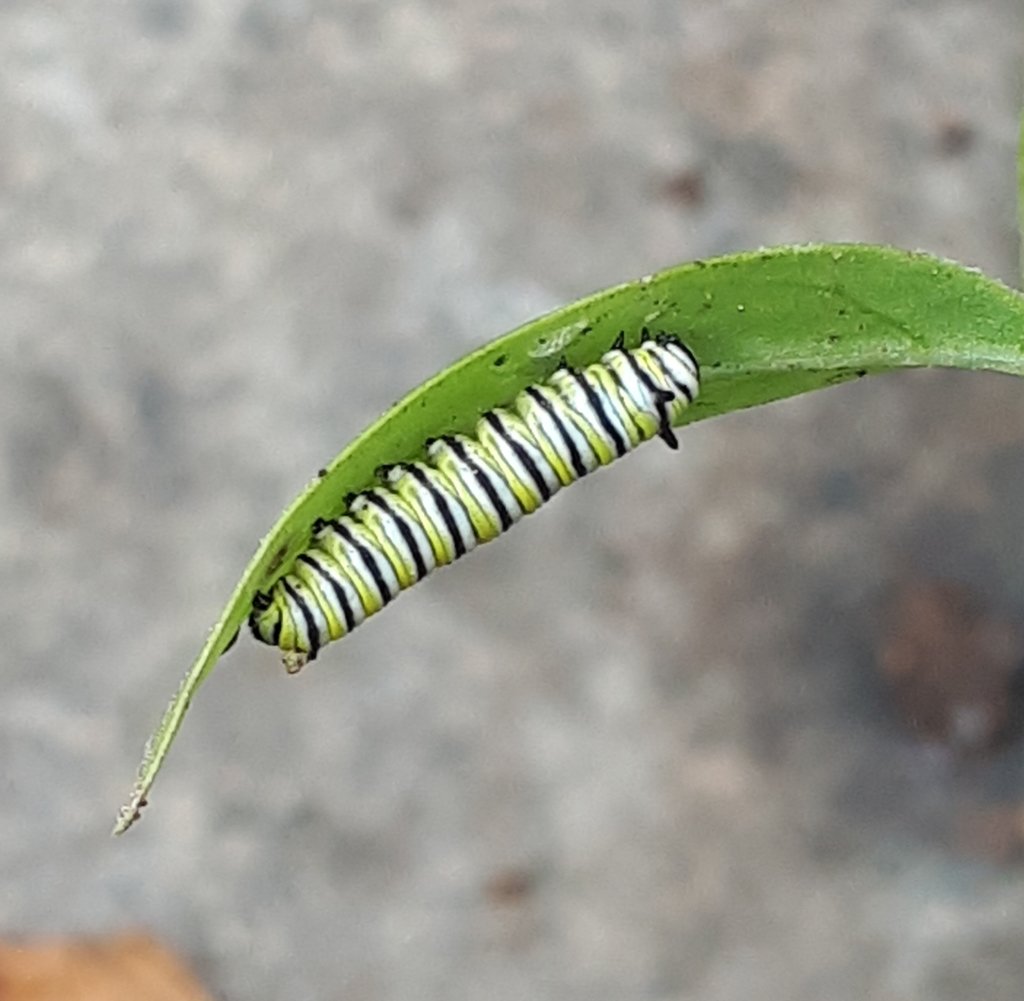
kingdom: Animalia
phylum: Arthropoda
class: Insecta
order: Lepidoptera
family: Nymphalidae
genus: Danaus
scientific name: Danaus plexippus
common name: Monarch
